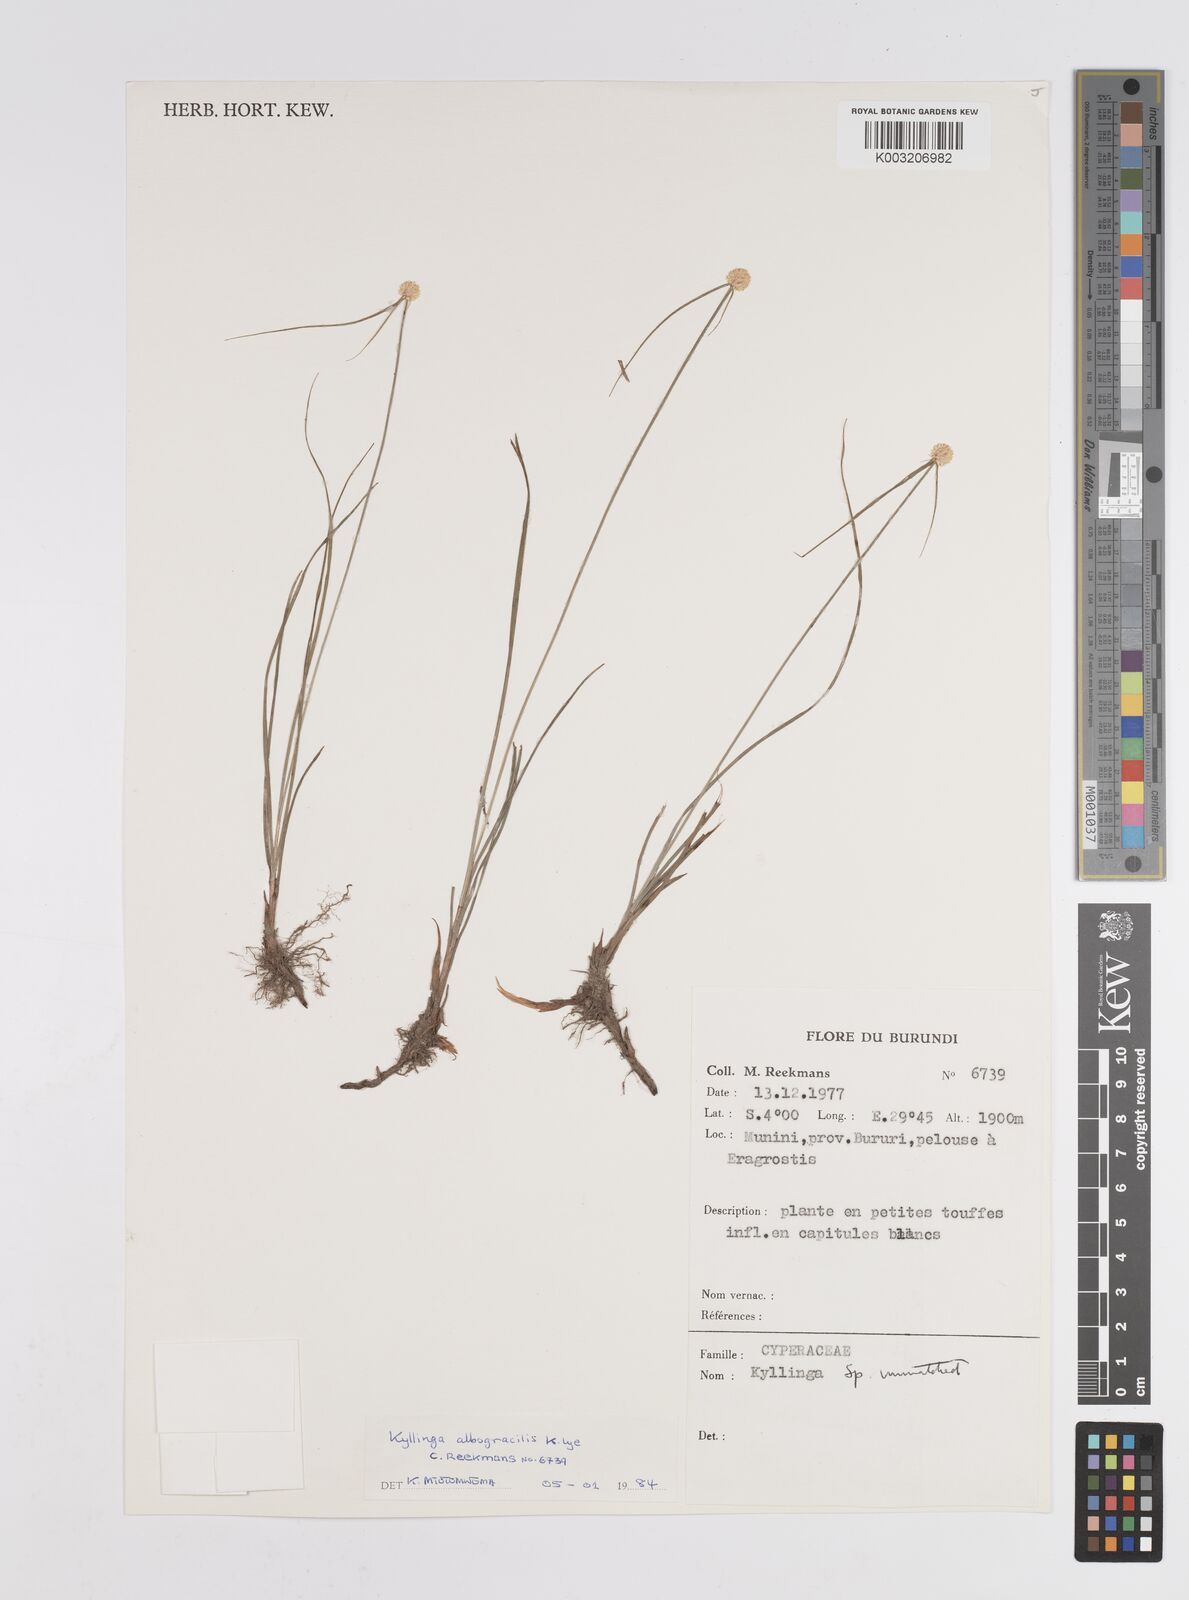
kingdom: Plantae
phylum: Tracheophyta
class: Liliopsida
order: Poales
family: Cyperaceae
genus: Cyperus
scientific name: Cyperus albogracilis
